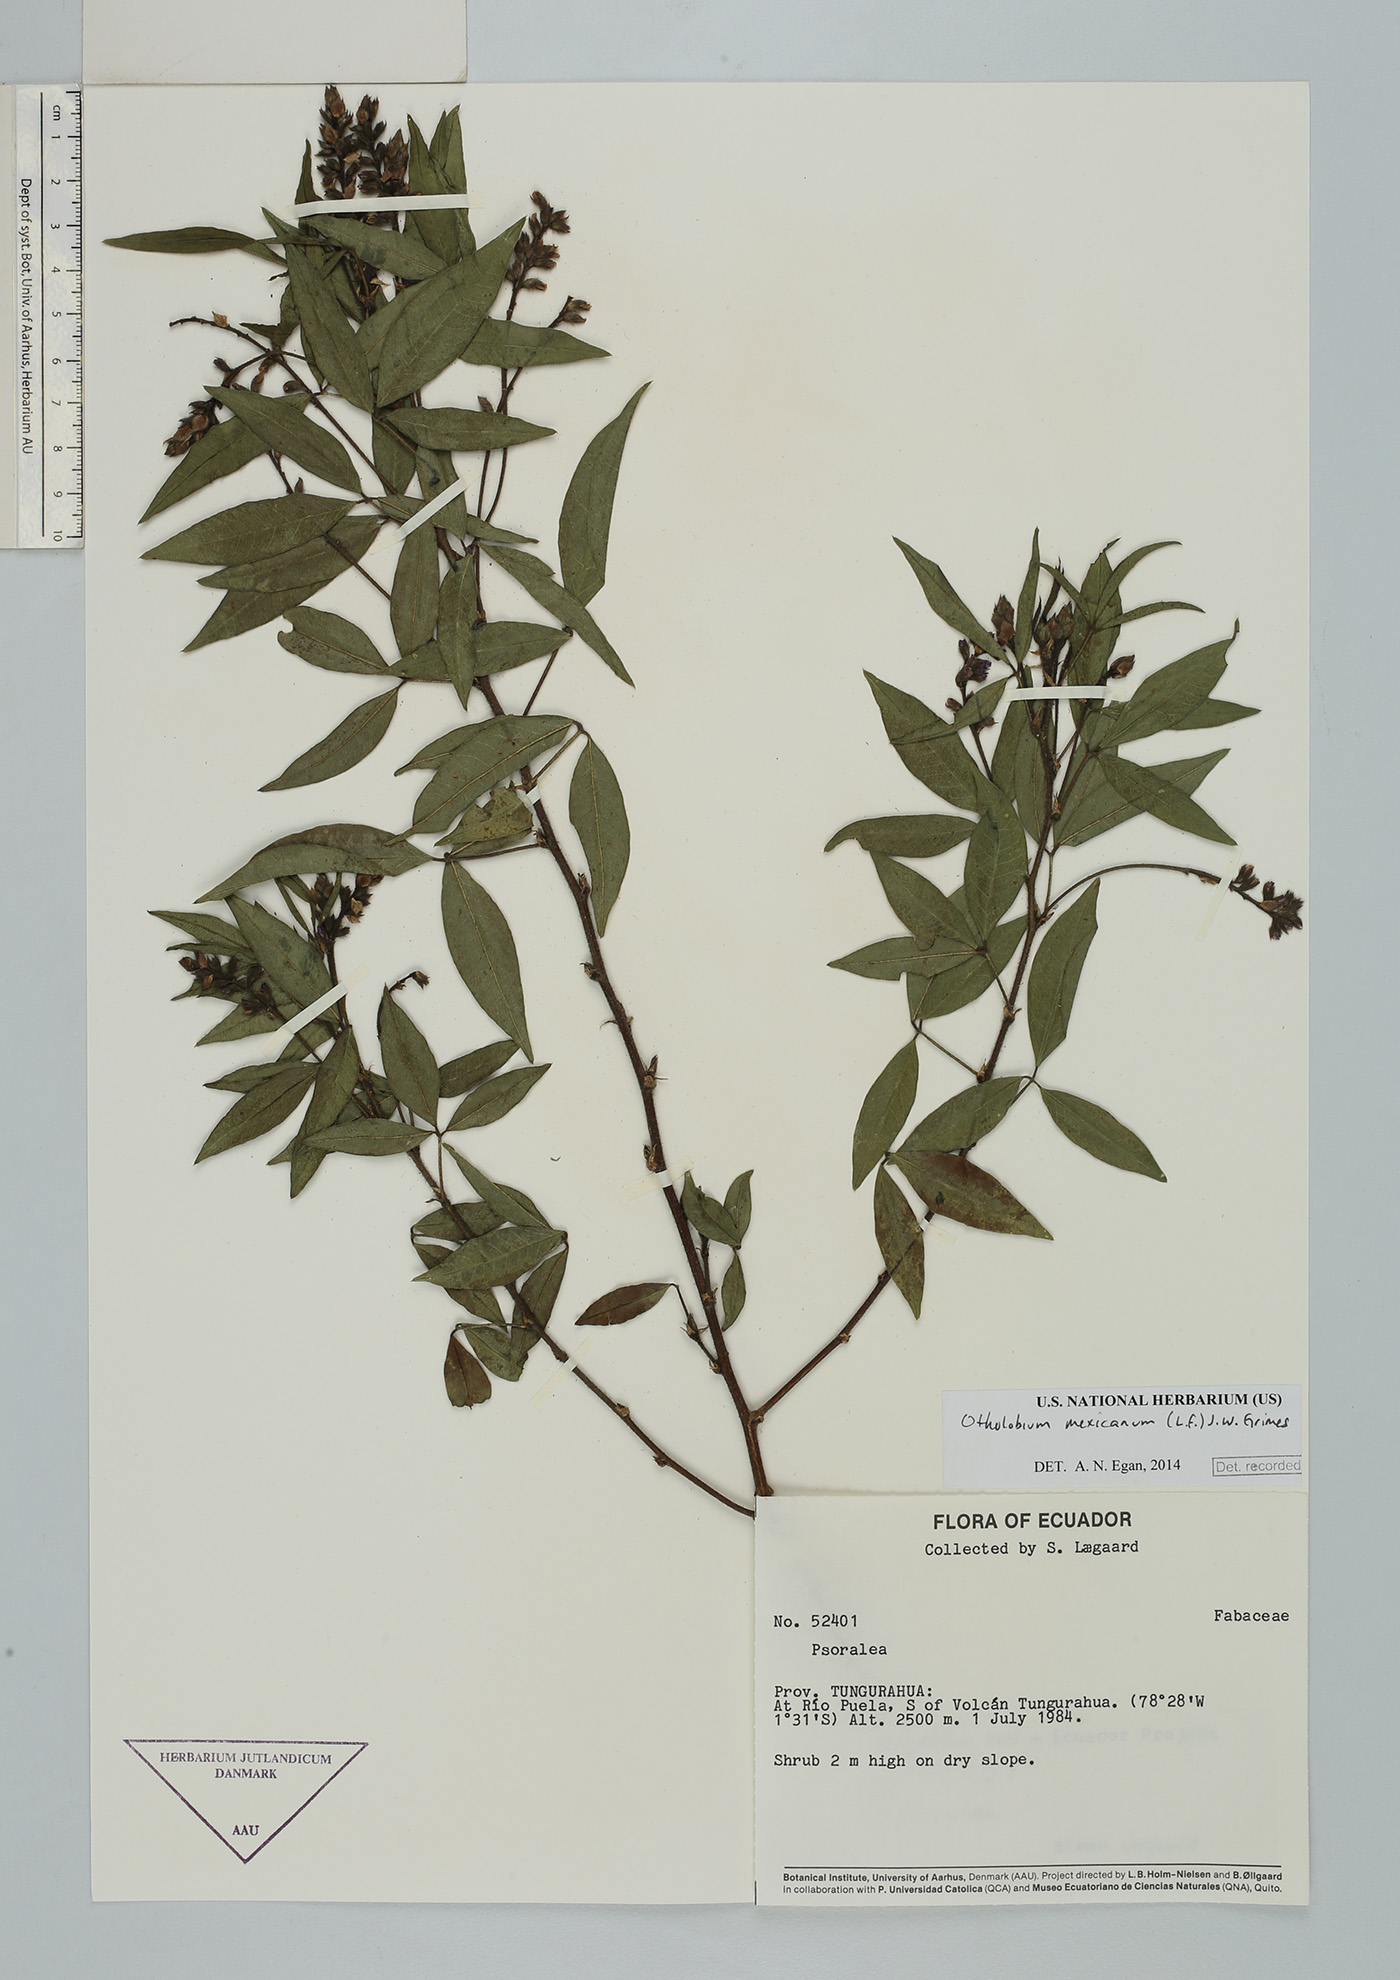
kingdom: Plantae
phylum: Tracheophyta
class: Magnoliopsida
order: Fabales
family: Fabaceae
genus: Psoralea
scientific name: Psoralea Otholobium mexicanum
